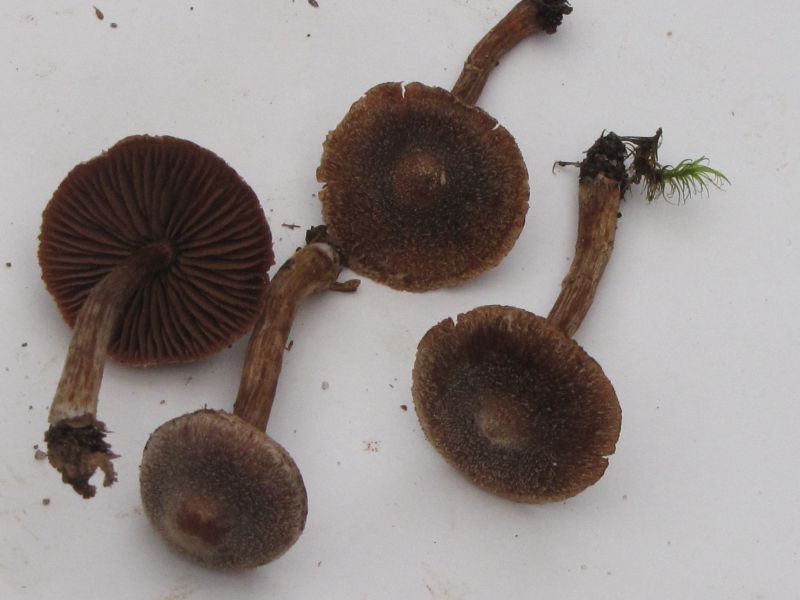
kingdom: Fungi
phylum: Basidiomycota
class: Agaricomycetes
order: Agaricales
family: Cortinariaceae
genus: Cortinarius
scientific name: Cortinarius
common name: pelargonie-slørhat
